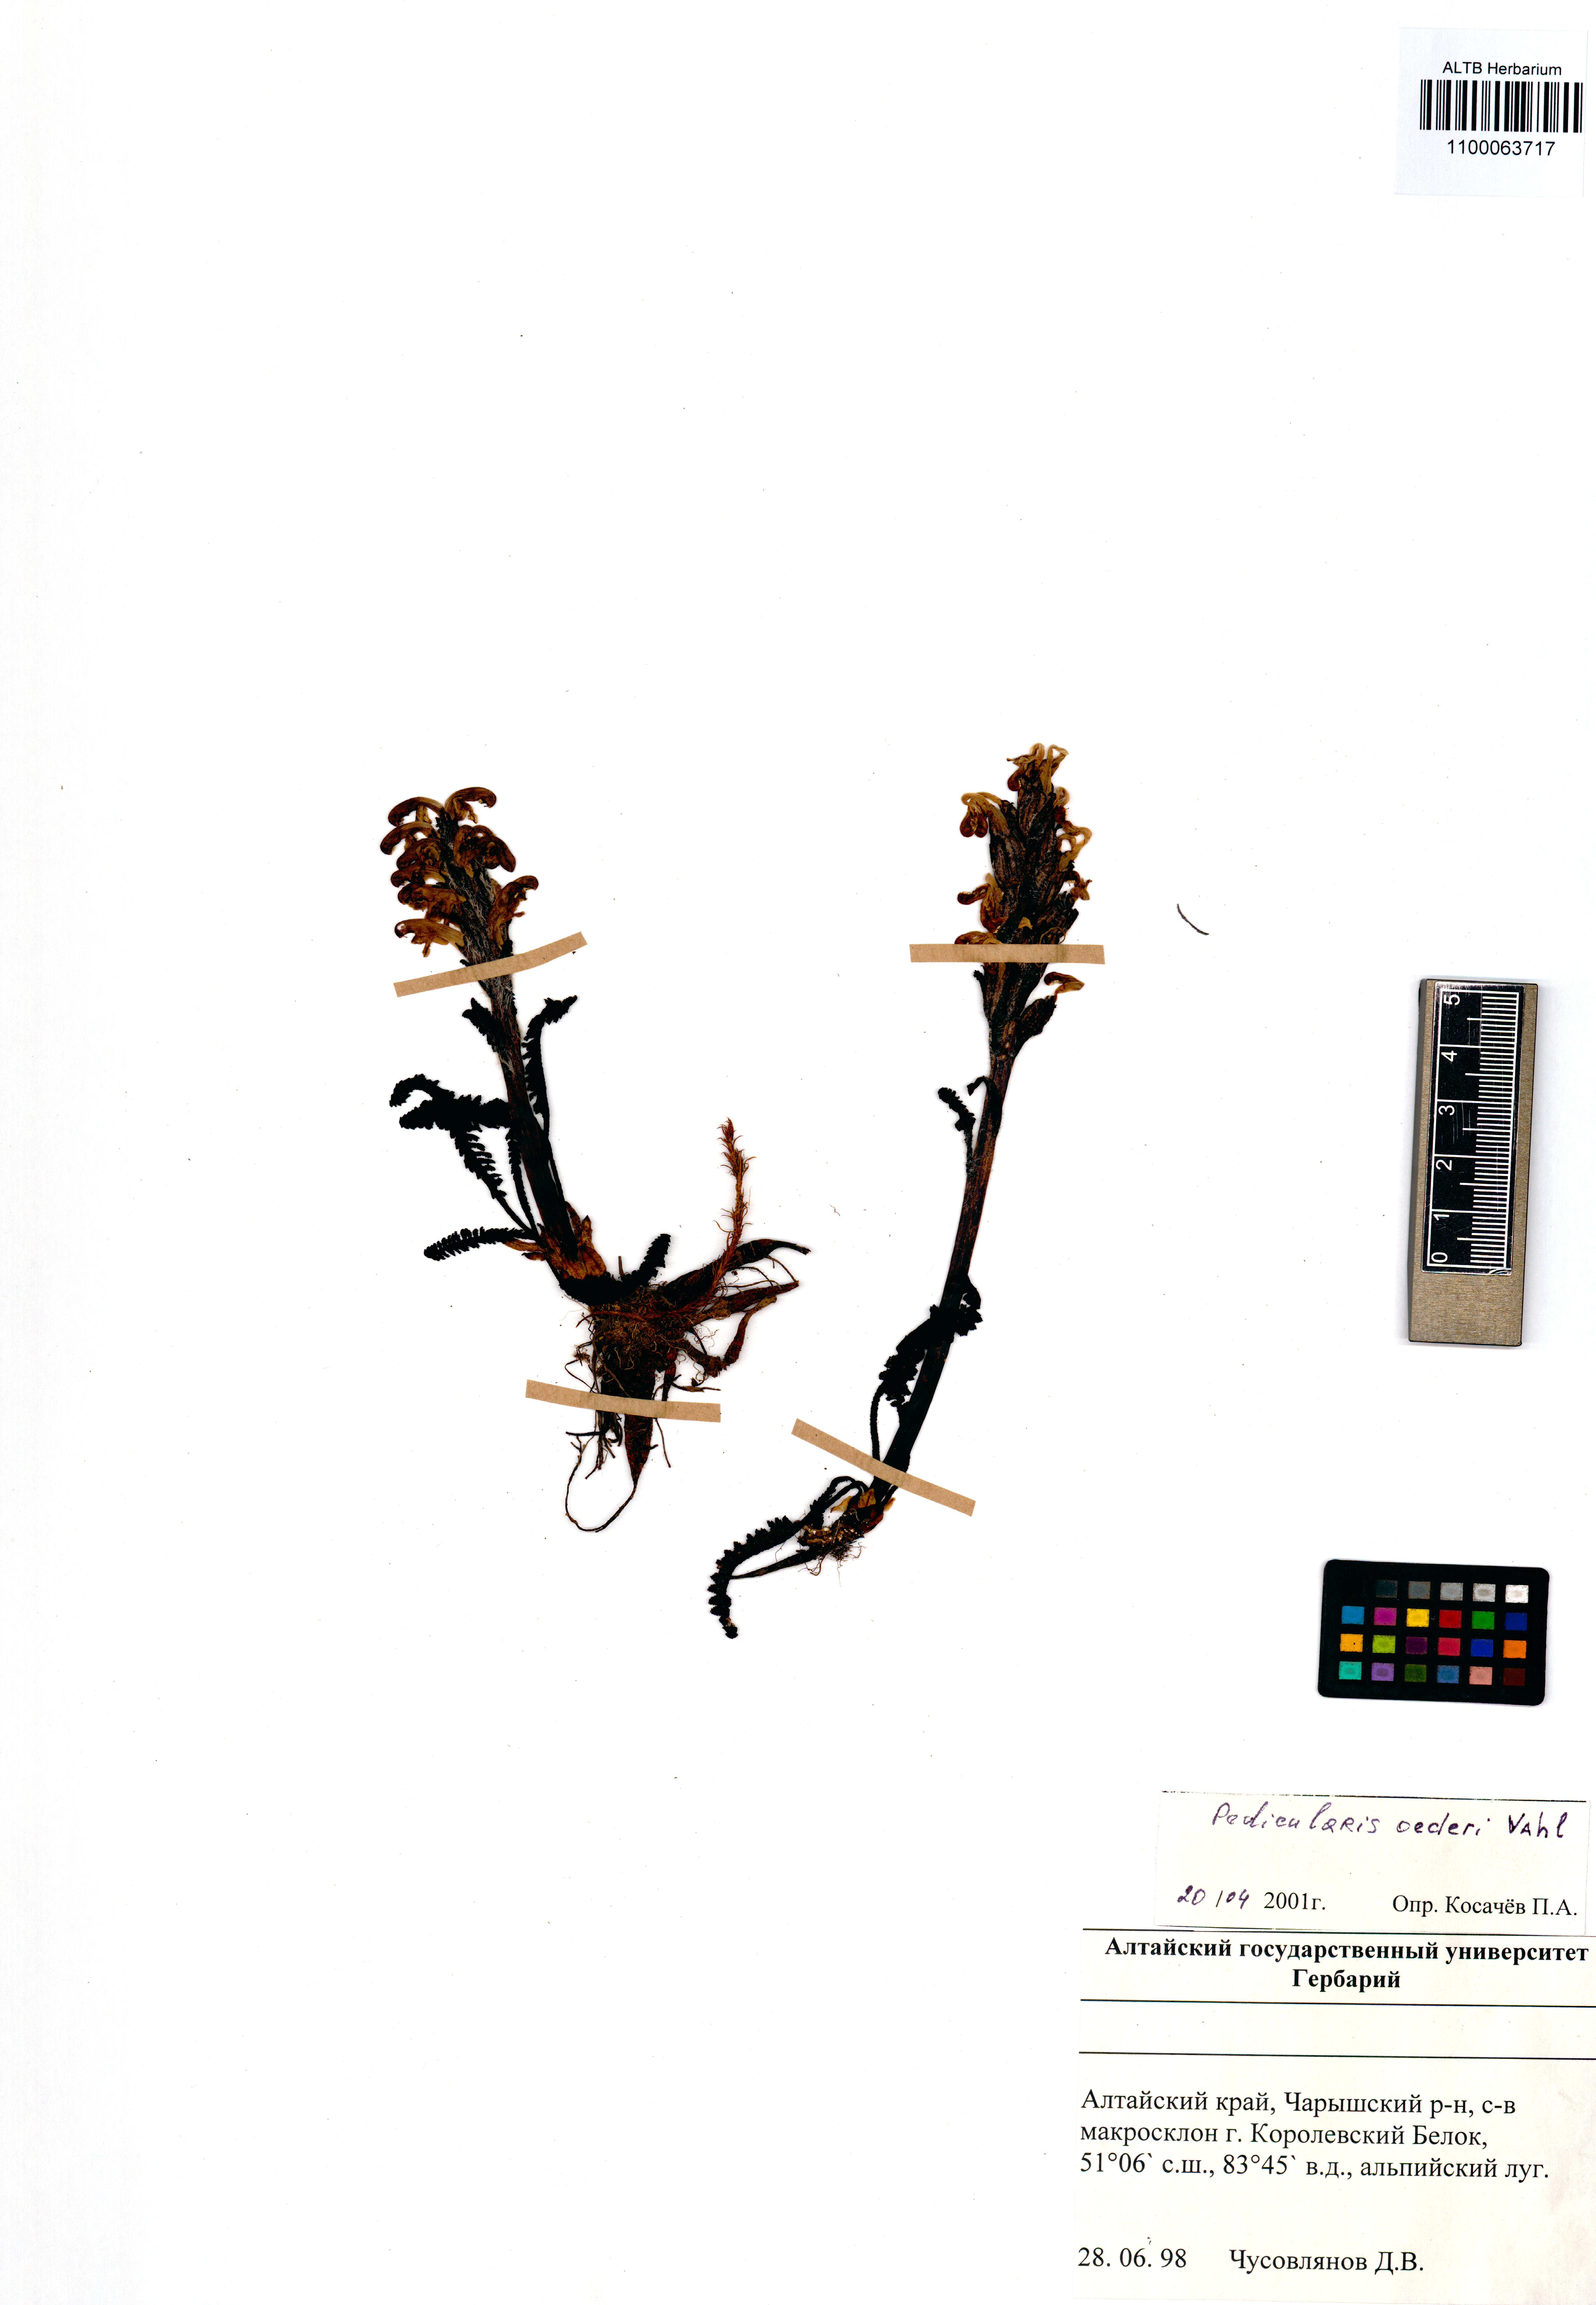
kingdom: Plantae
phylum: Tracheophyta
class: Magnoliopsida
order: Lamiales
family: Orobanchaceae
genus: Pedicularis
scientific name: Pedicularis oederi
